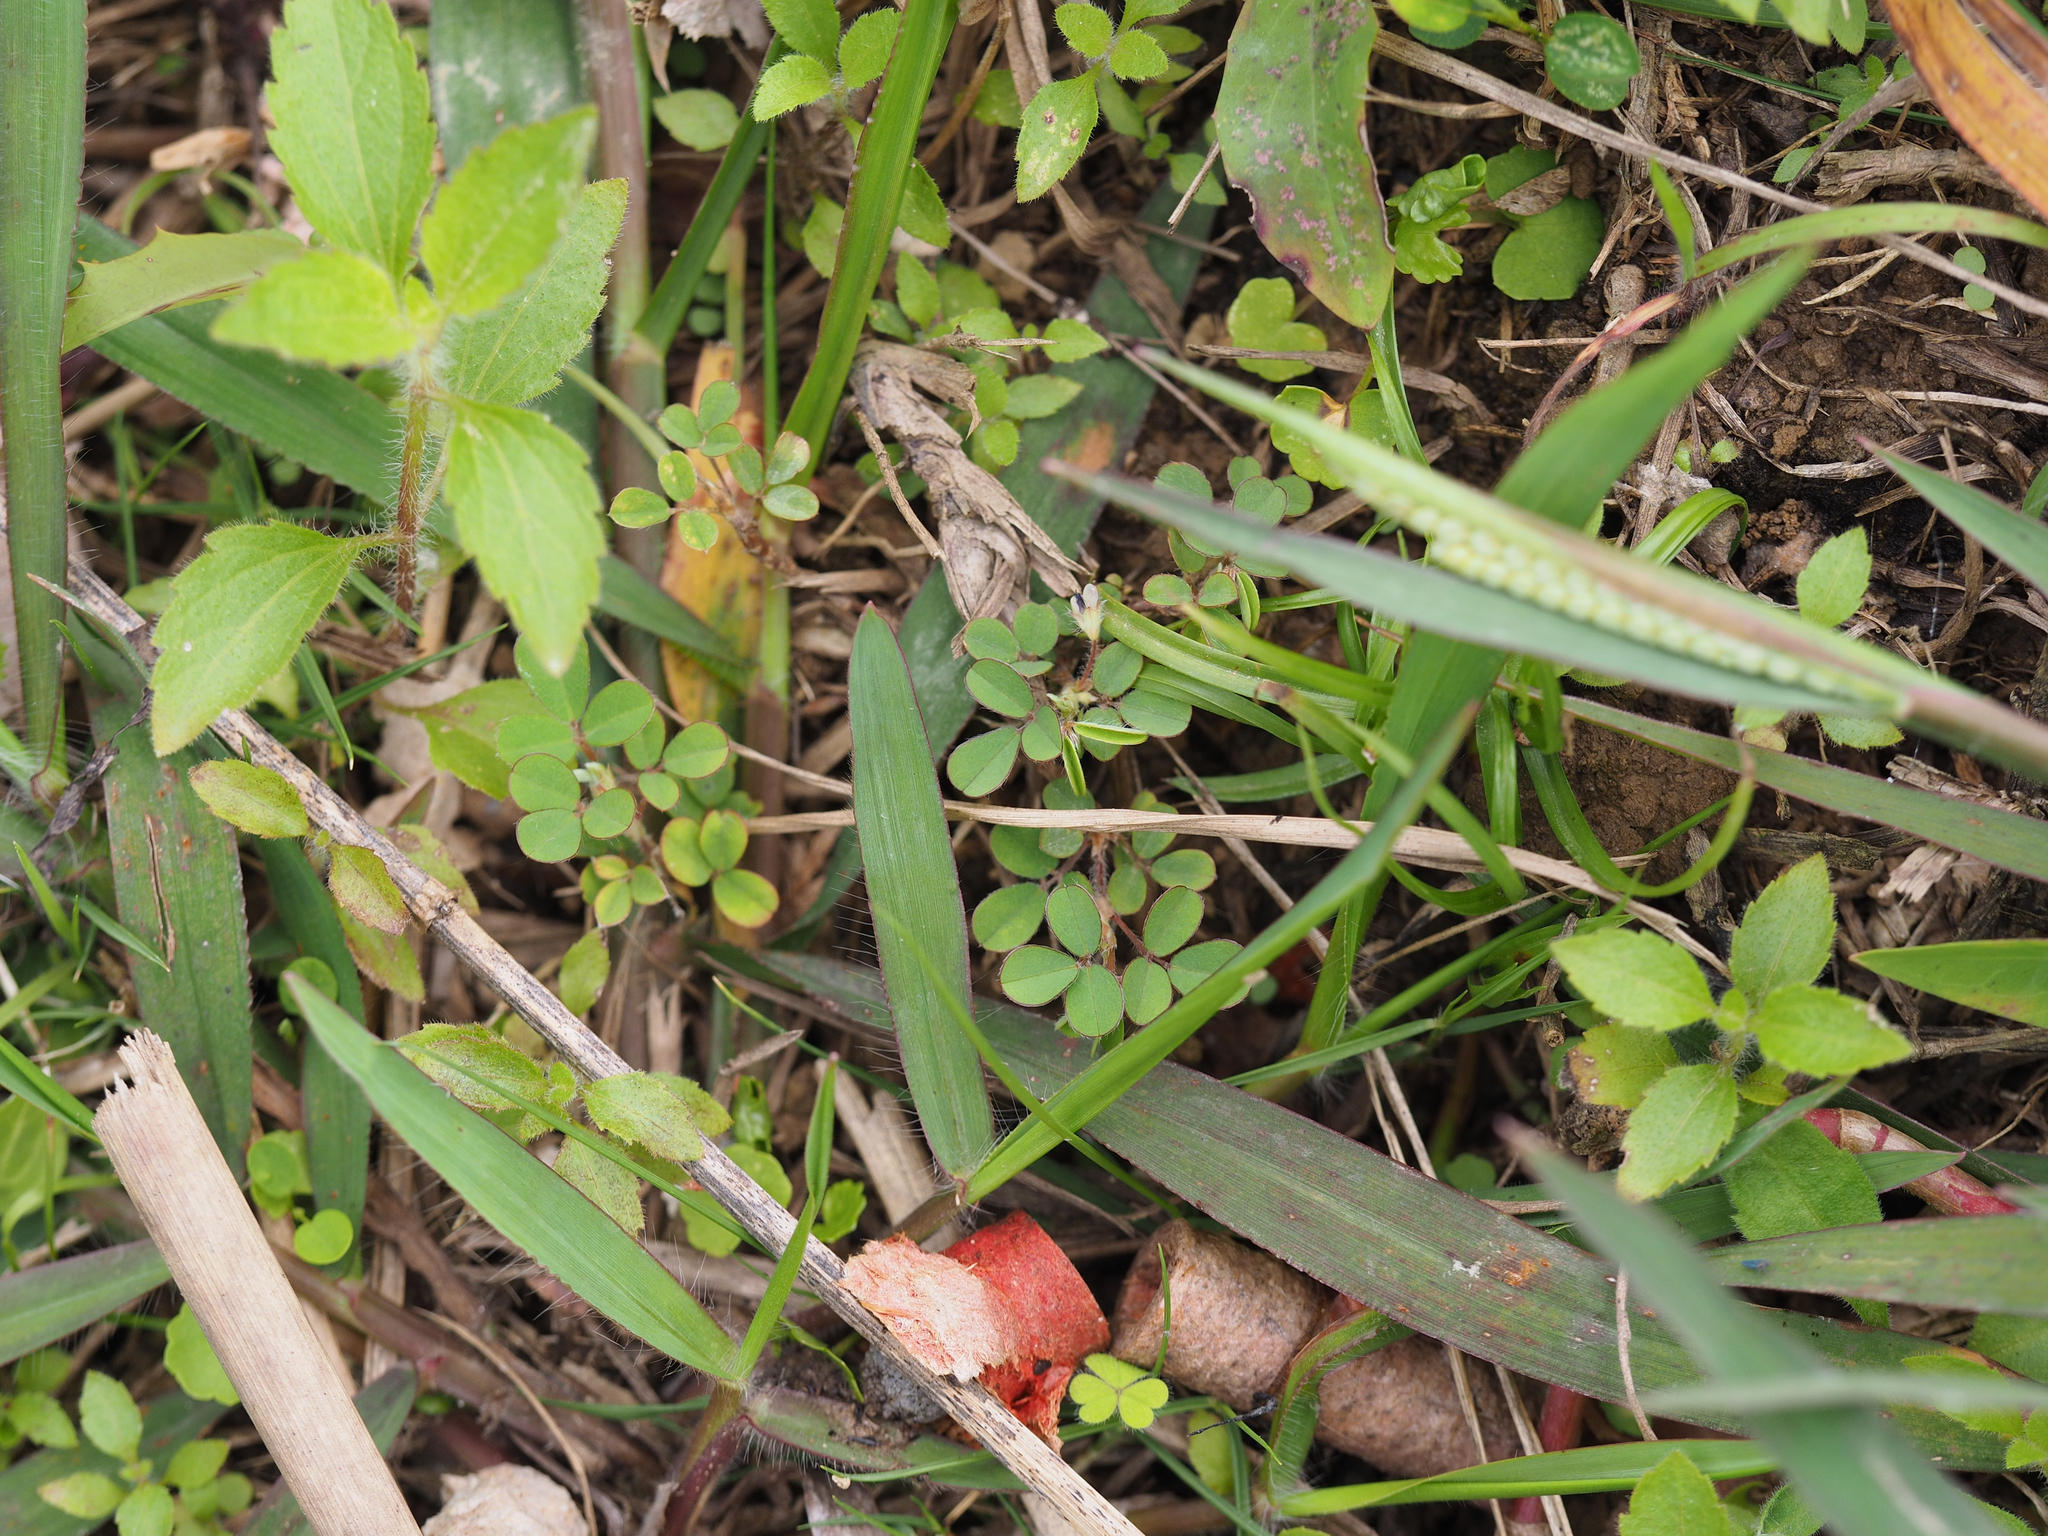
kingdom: Plantae
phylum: Tracheophyta
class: Magnoliopsida
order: Fabales
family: Fabaceae
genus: Grona
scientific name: Grona triflora
